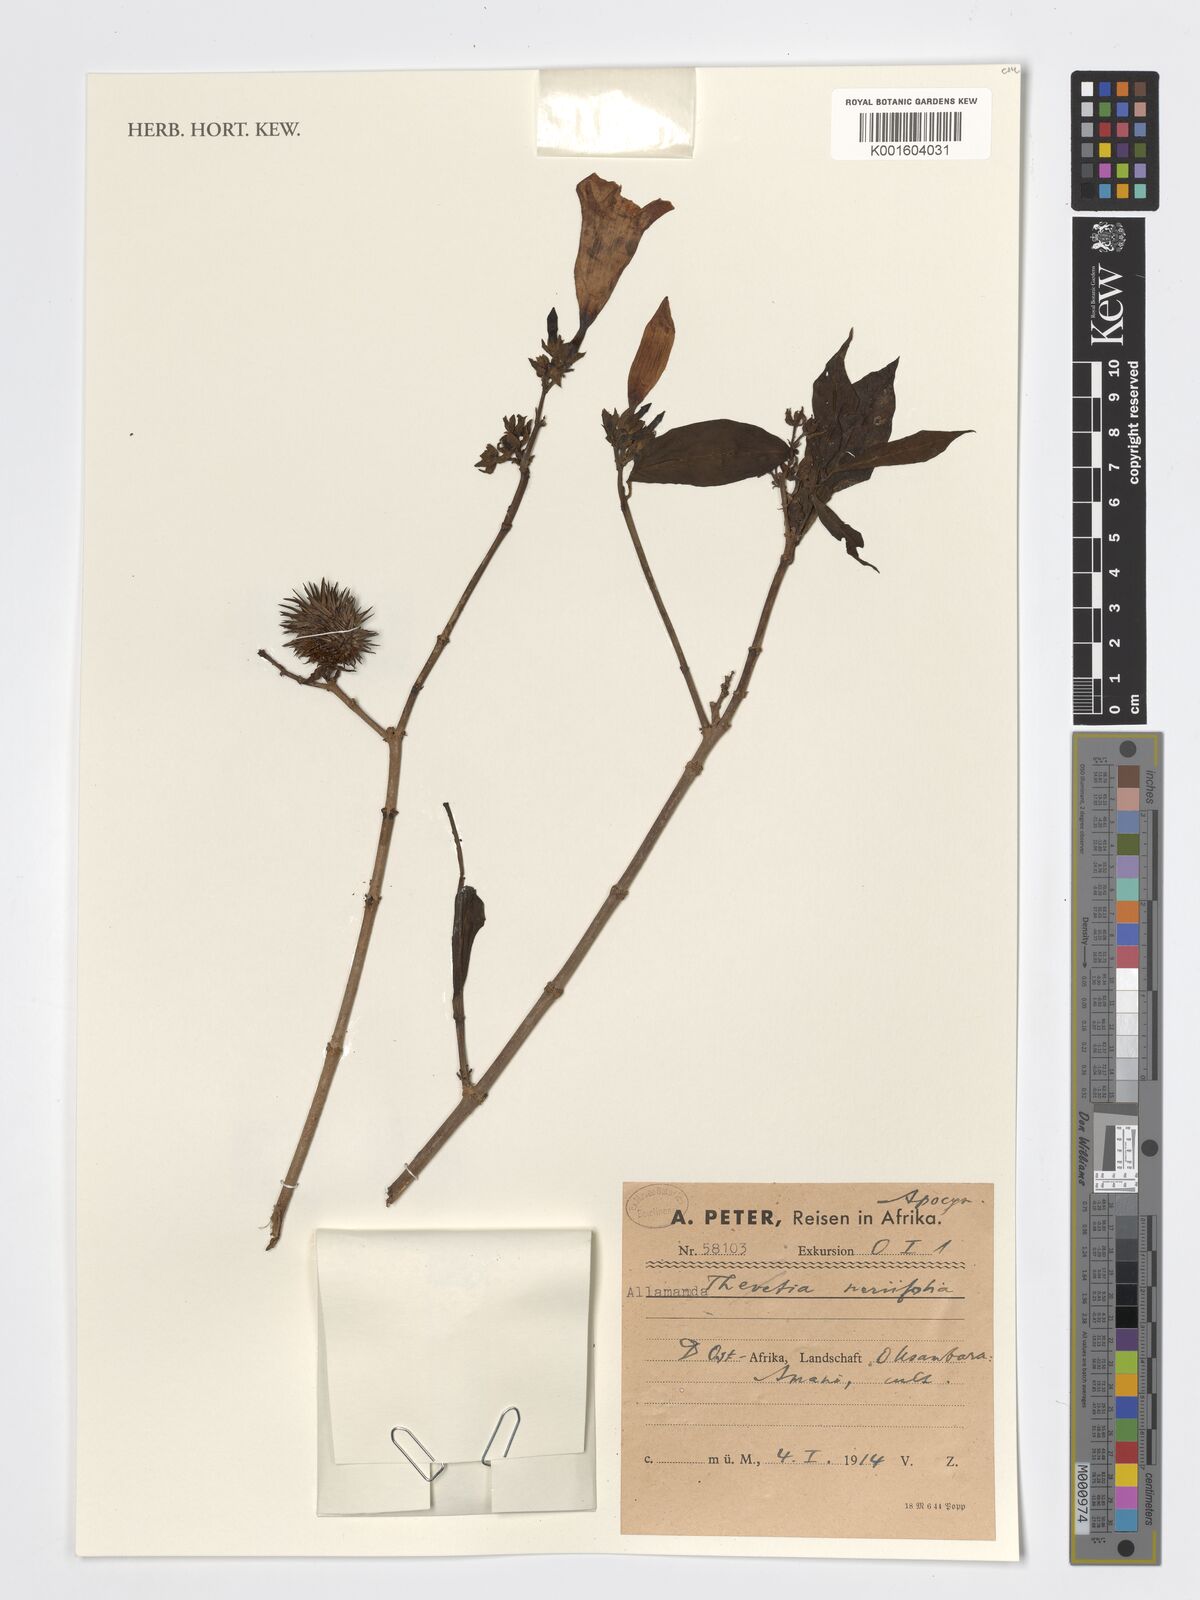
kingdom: Plantae
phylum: Tracheophyta
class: Magnoliopsida
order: Gentianales
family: Apocynaceae
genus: Cascabela
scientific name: Cascabela thevetia
